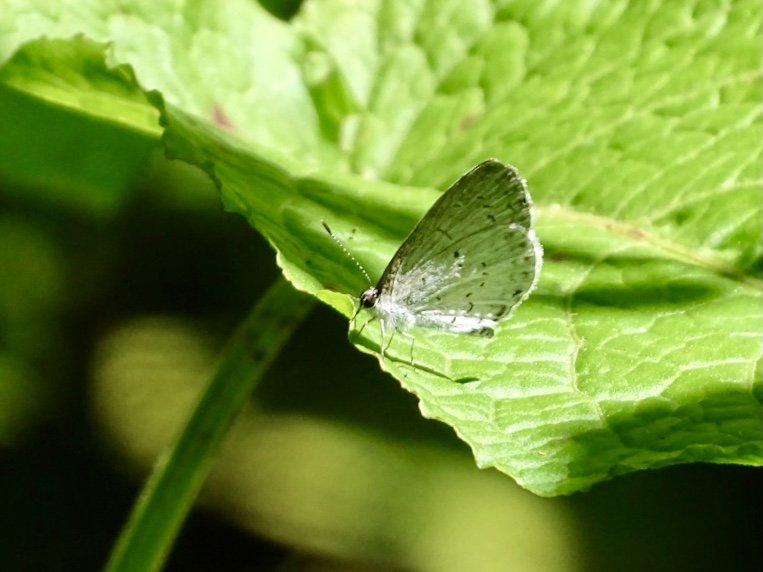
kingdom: Animalia
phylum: Arthropoda
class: Insecta
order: Lepidoptera
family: Lycaenidae
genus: Cyaniris
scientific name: Cyaniris neglecta
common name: Summer Azure
